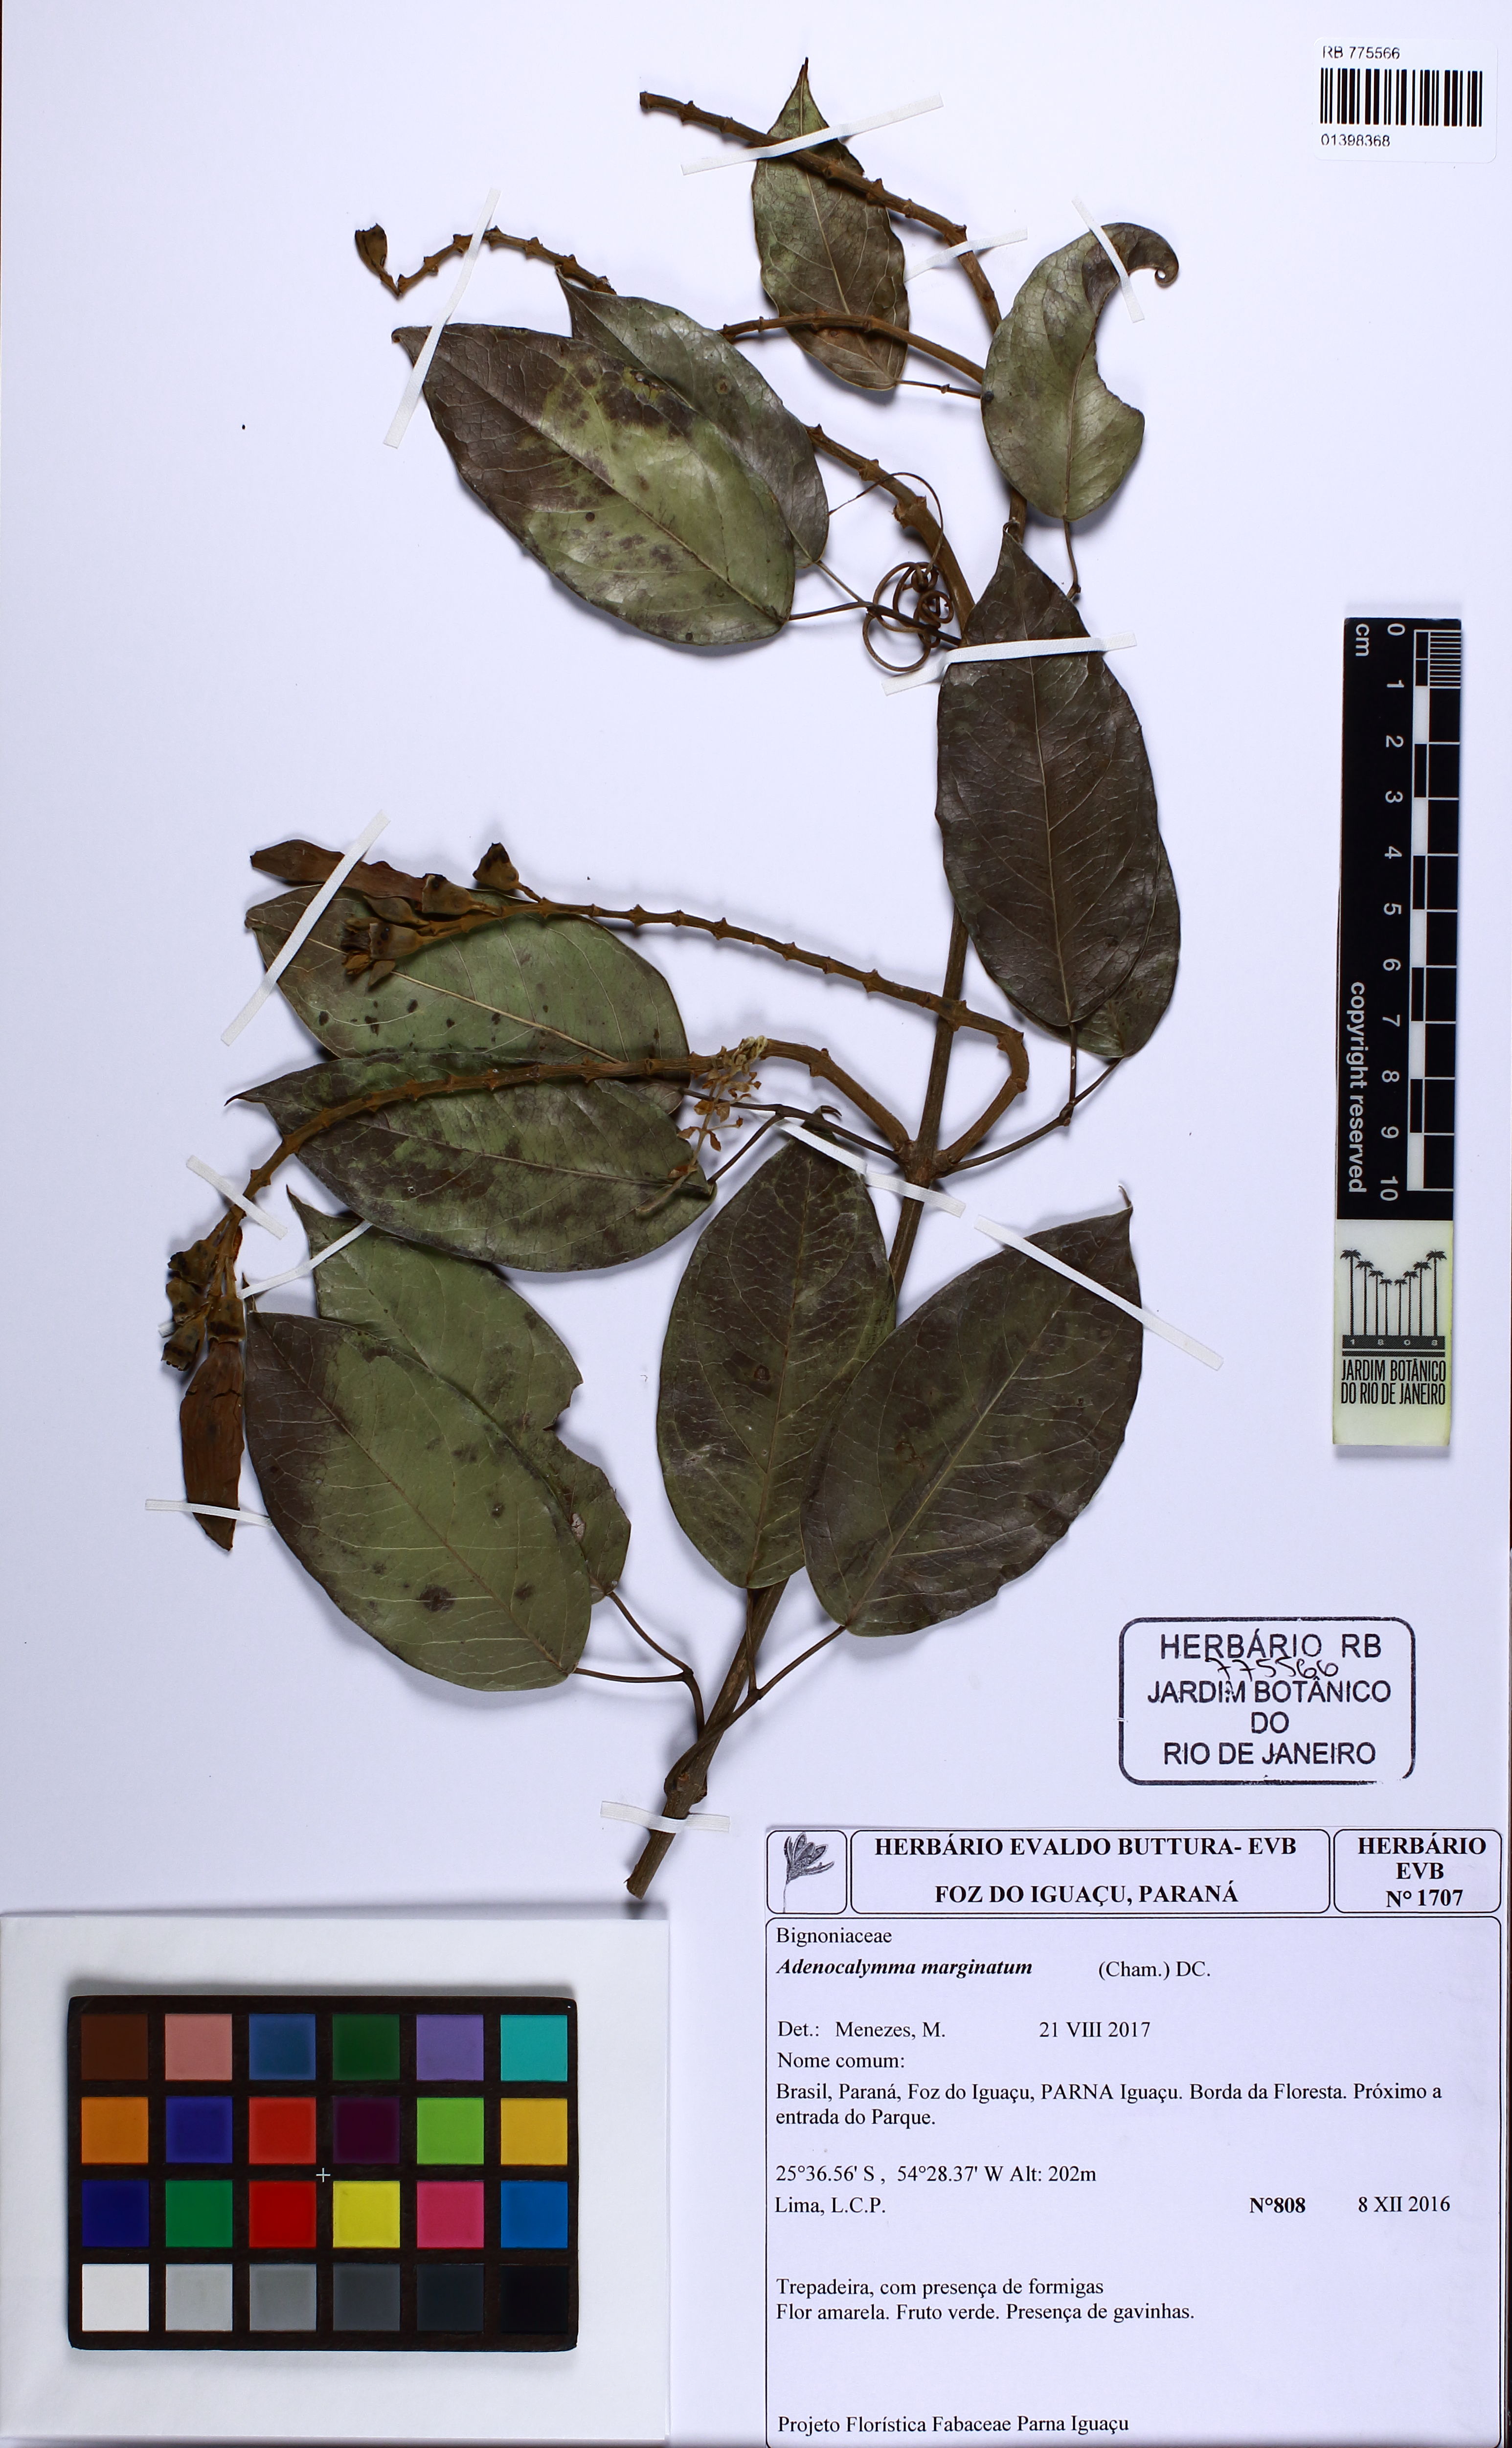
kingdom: Plantae
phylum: Tracheophyta
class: Magnoliopsida
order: Lamiales
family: Bignoniaceae
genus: Adenocalymma
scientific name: Adenocalymma marginatum
